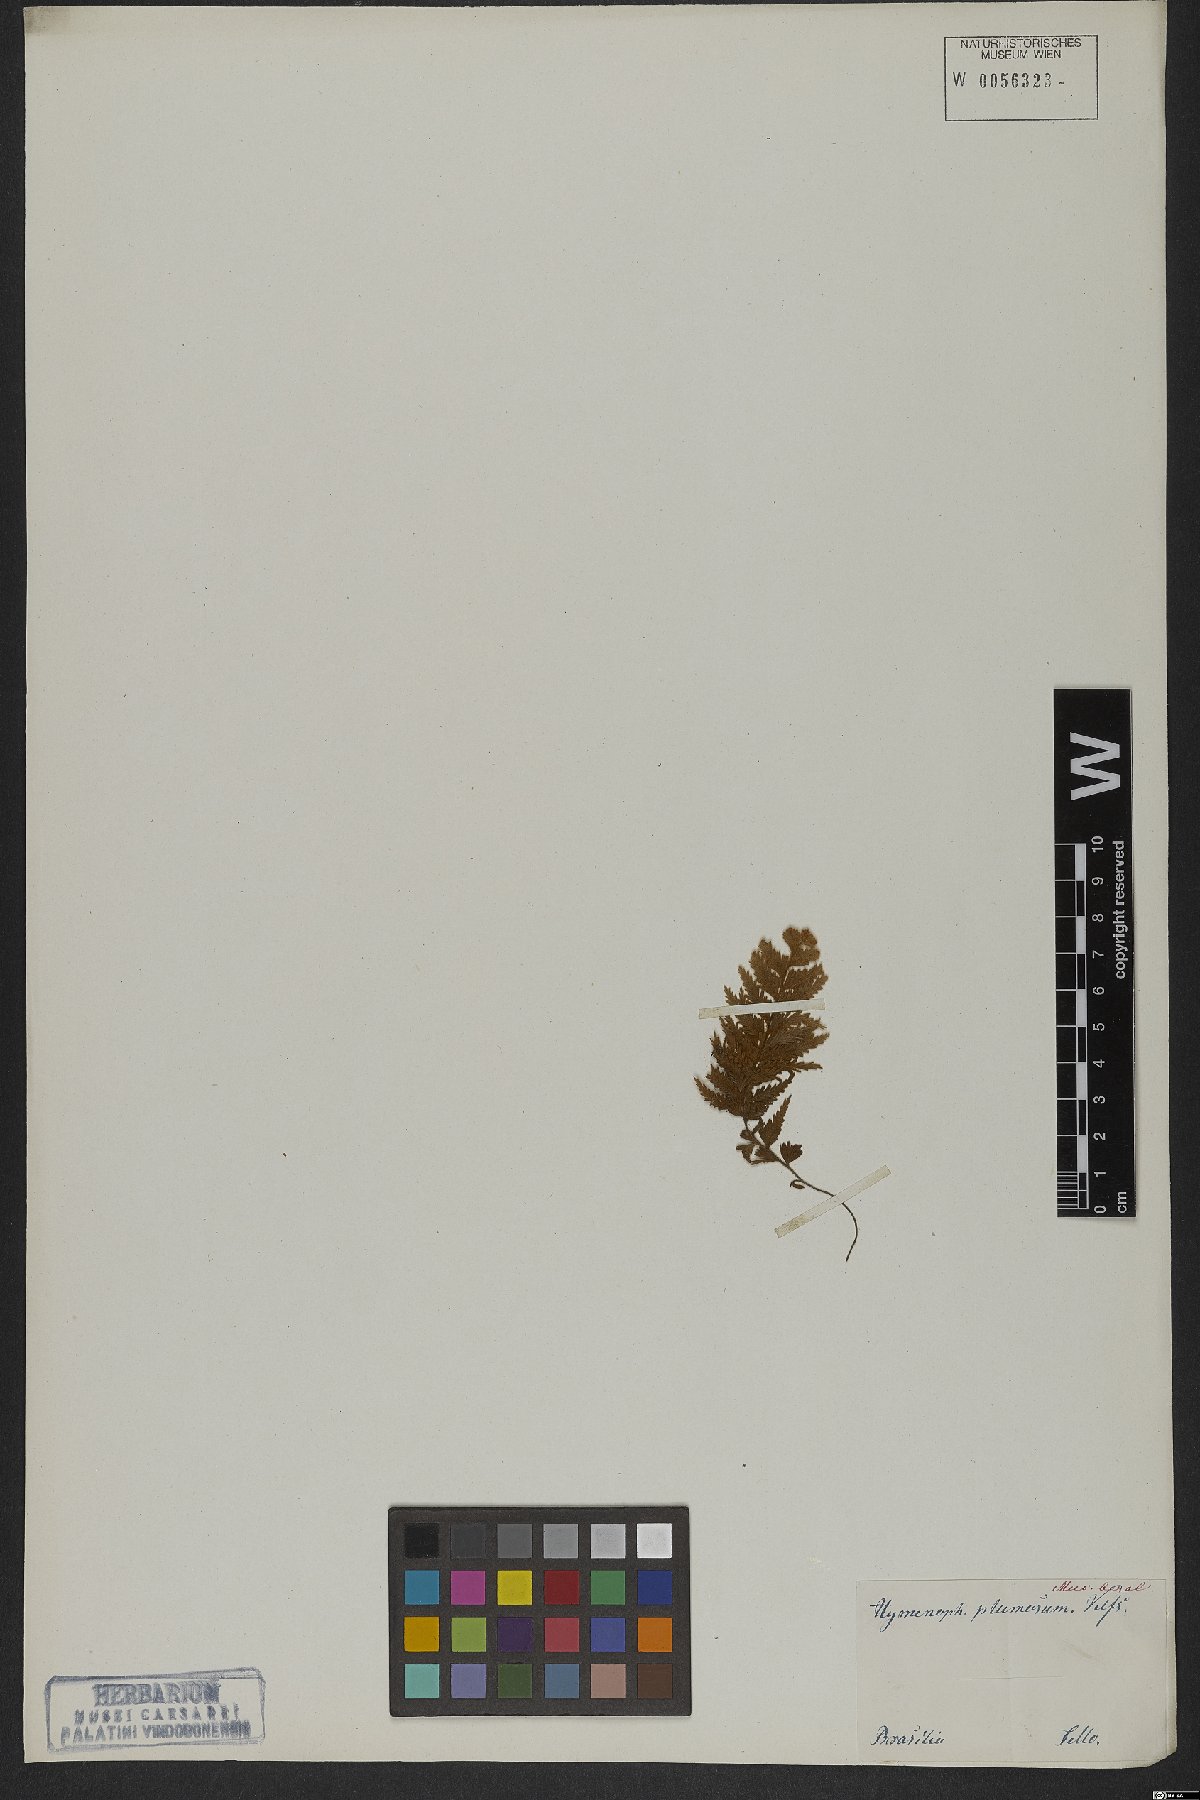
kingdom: Plantae
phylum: Tracheophyta
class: Polypodiopsida
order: Hymenophyllales
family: Hymenophyllaceae
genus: Hymenophyllum
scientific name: Hymenophyllum plumosum
